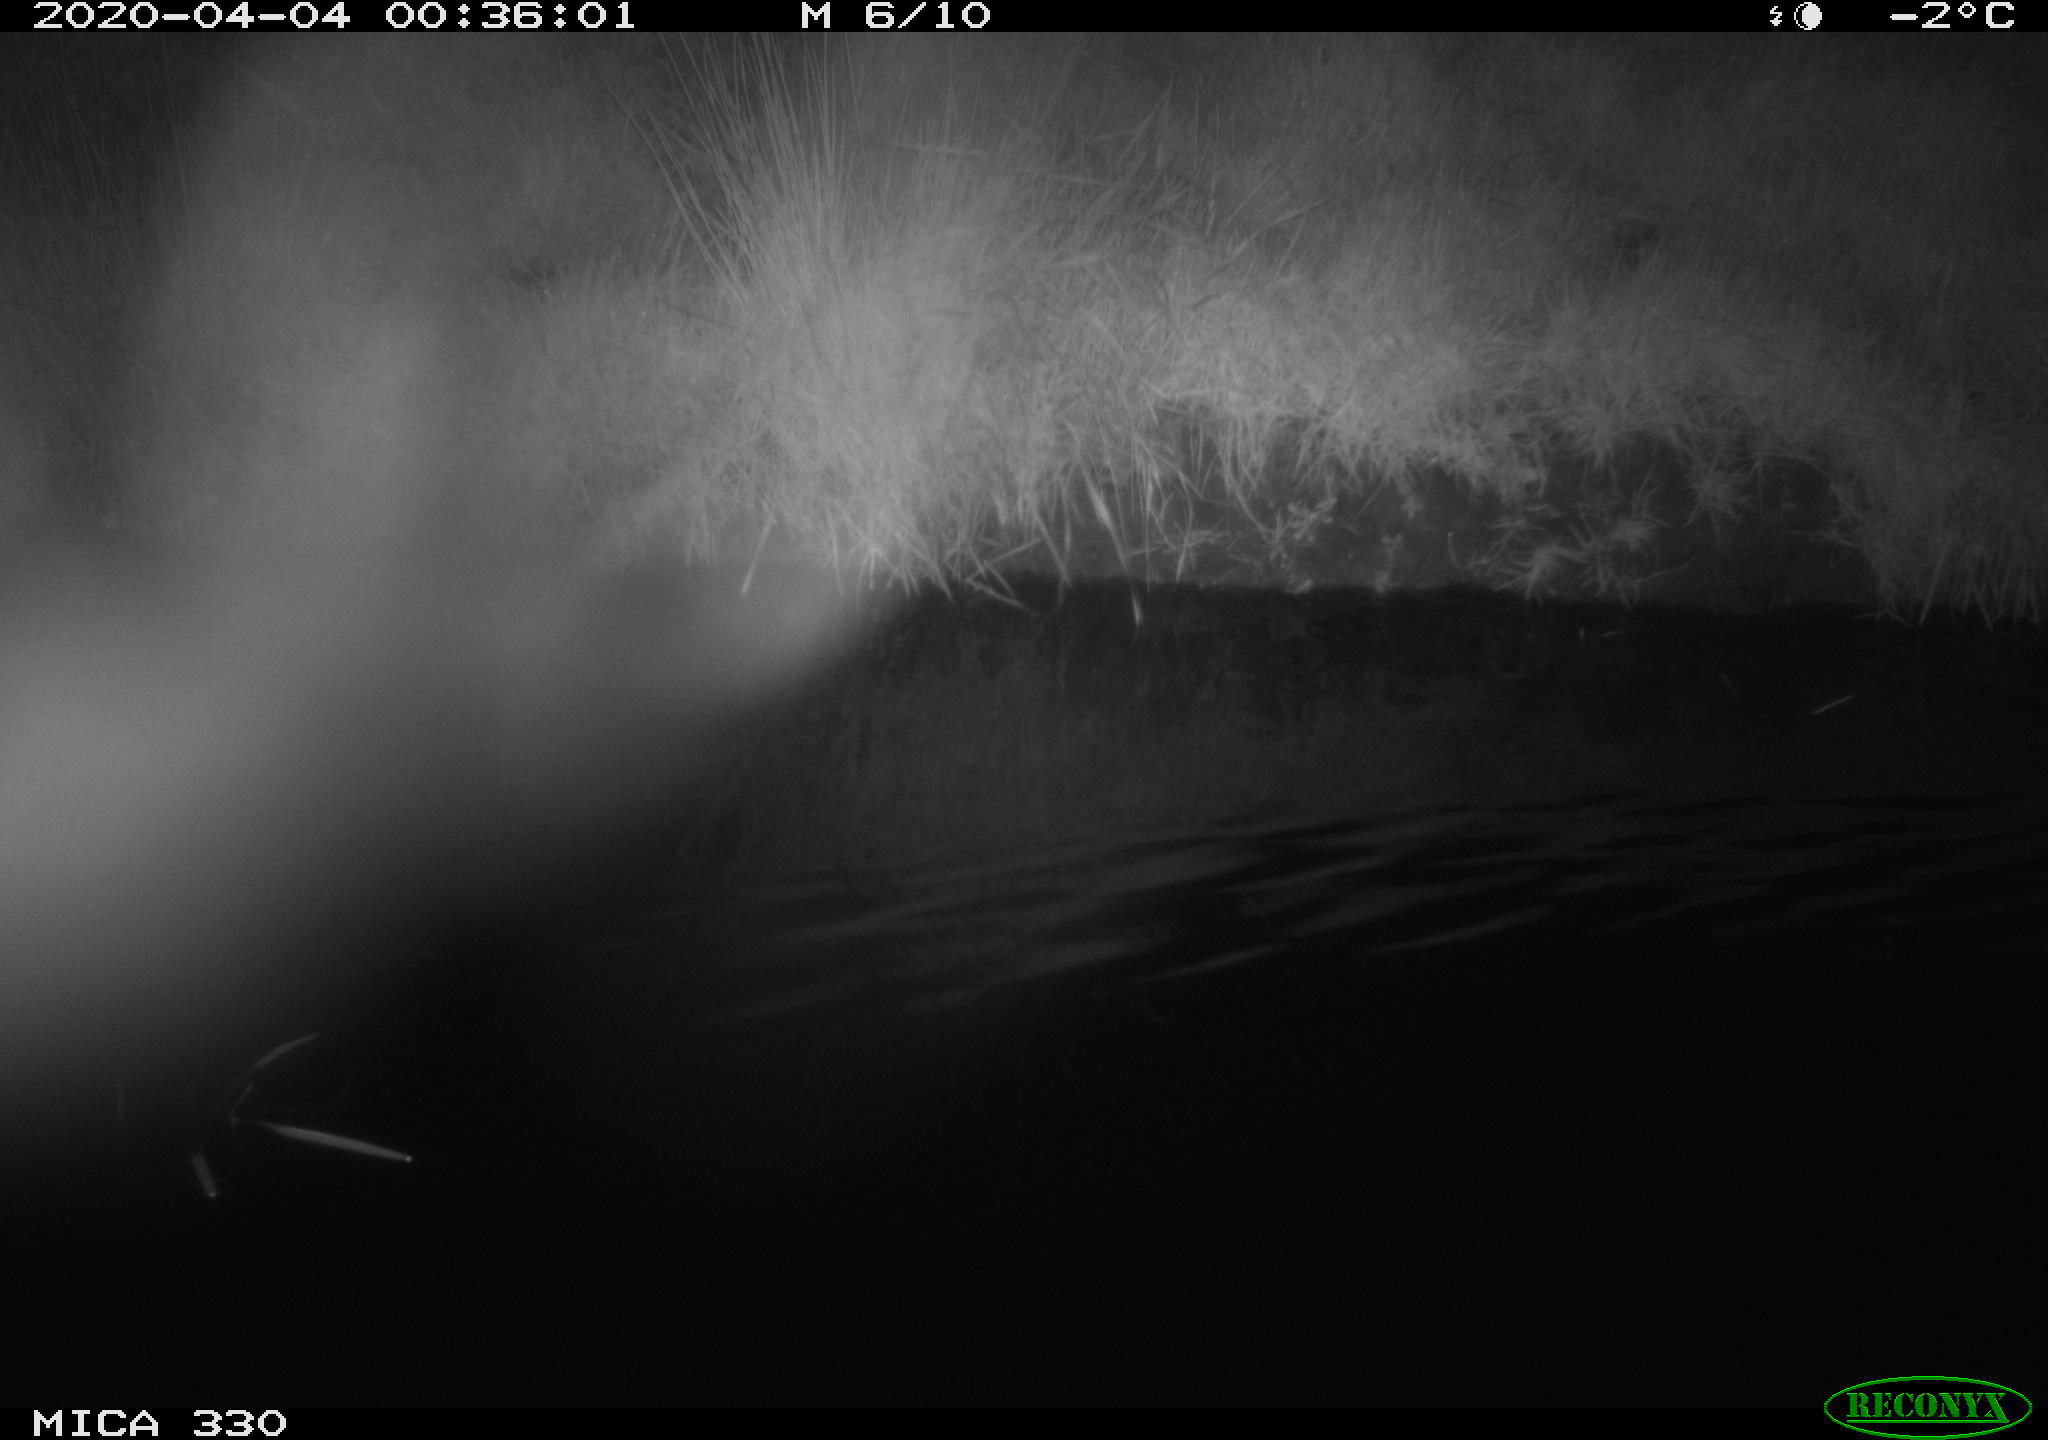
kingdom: Animalia
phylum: Chordata
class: Aves
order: Anseriformes
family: Anatidae
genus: Anas
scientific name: Anas platyrhynchos
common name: Mallard
